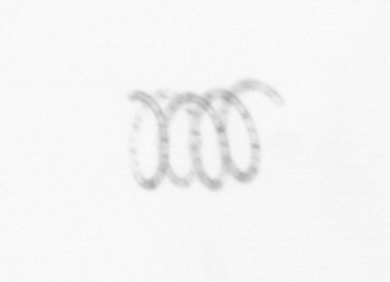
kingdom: Chromista
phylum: Ochrophyta
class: Bacillariophyceae
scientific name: Bacillariophyceae
